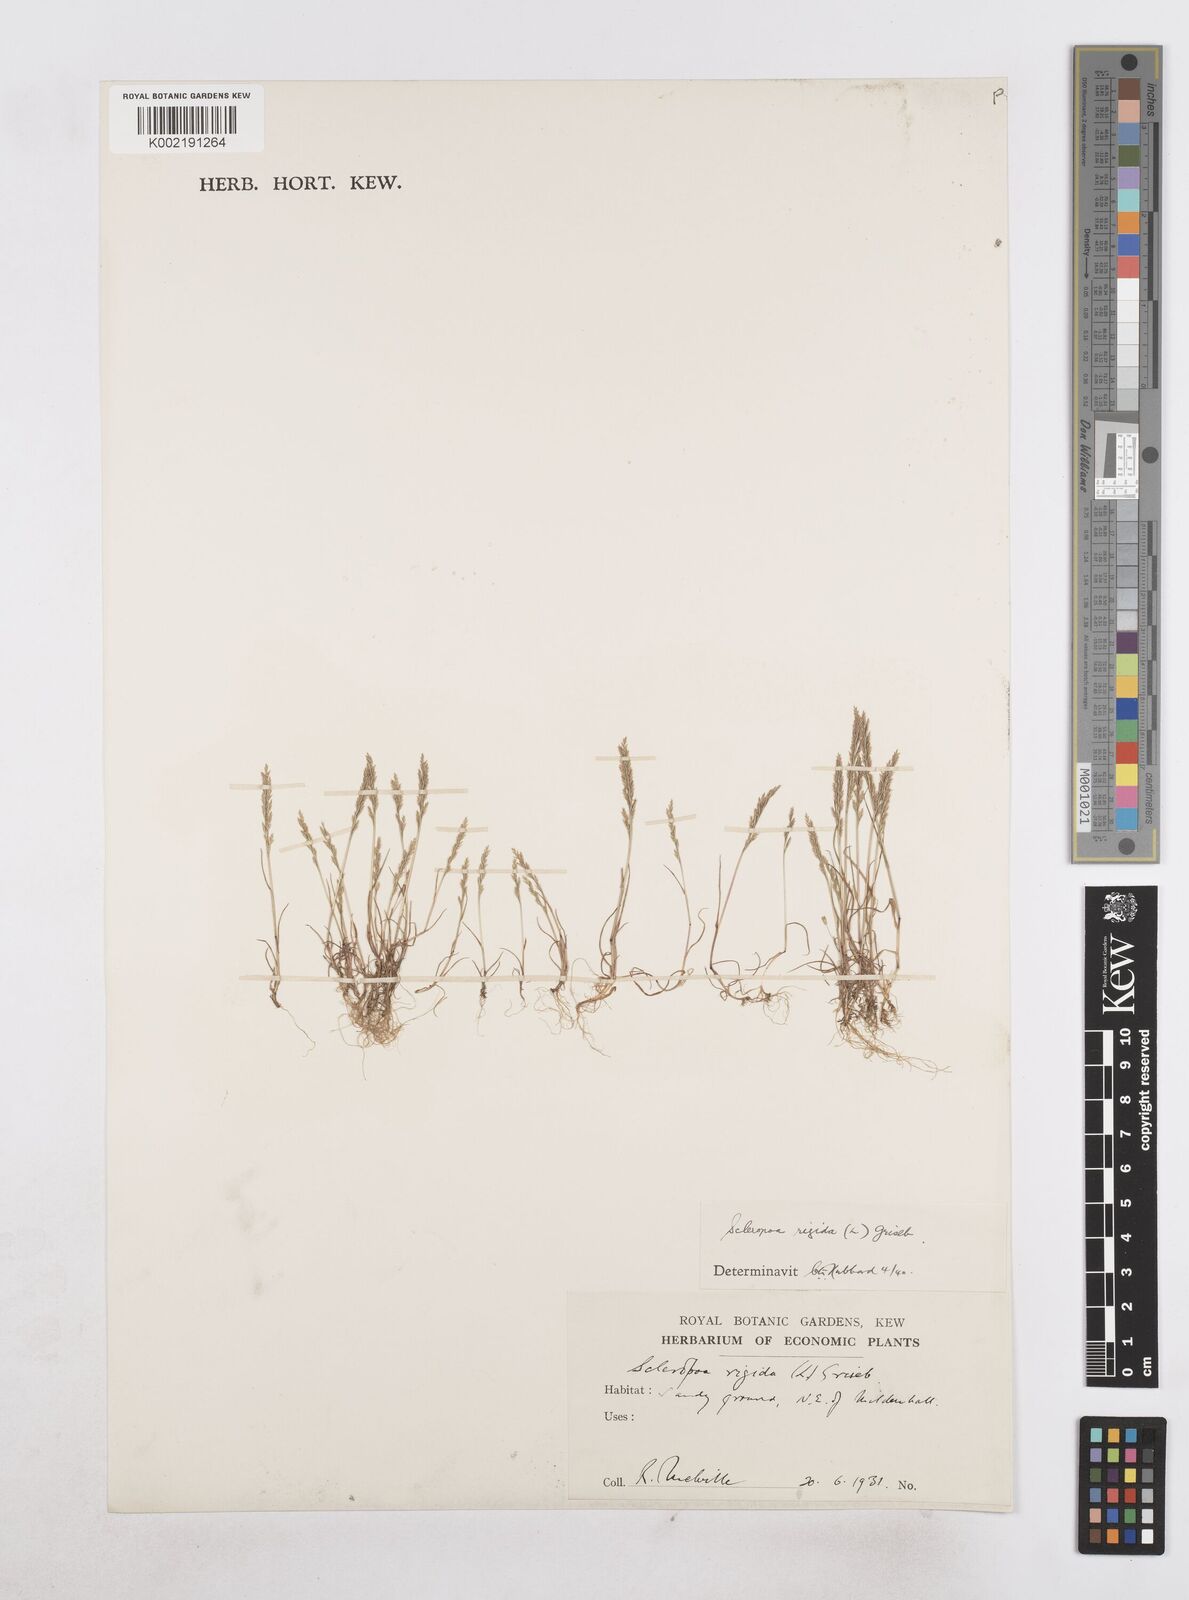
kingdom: Plantae
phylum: Tracheophyta
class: Liliopsida
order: Poales
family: Poaceae
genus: Catapodium
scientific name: Catapodium rigidum
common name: Fern-grass
